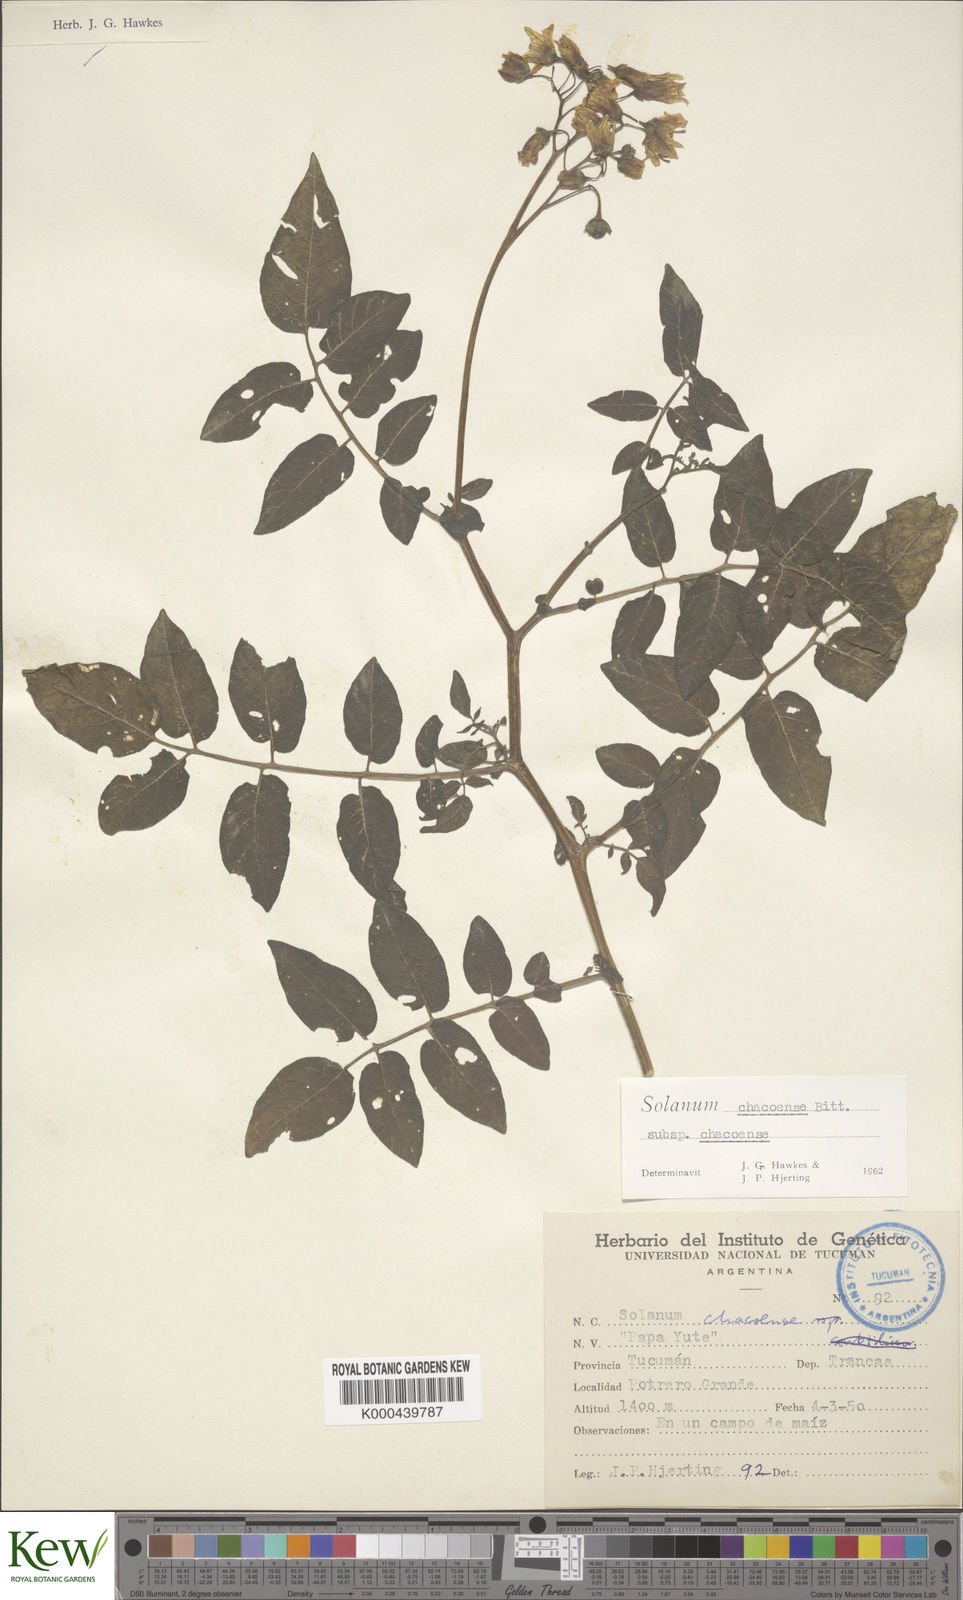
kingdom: Plantae
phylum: Tracheophyta
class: Magnoliopsida
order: Solanales
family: Solanaceae
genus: Solanum
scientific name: Solanum chacoense
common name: Chaco potato
